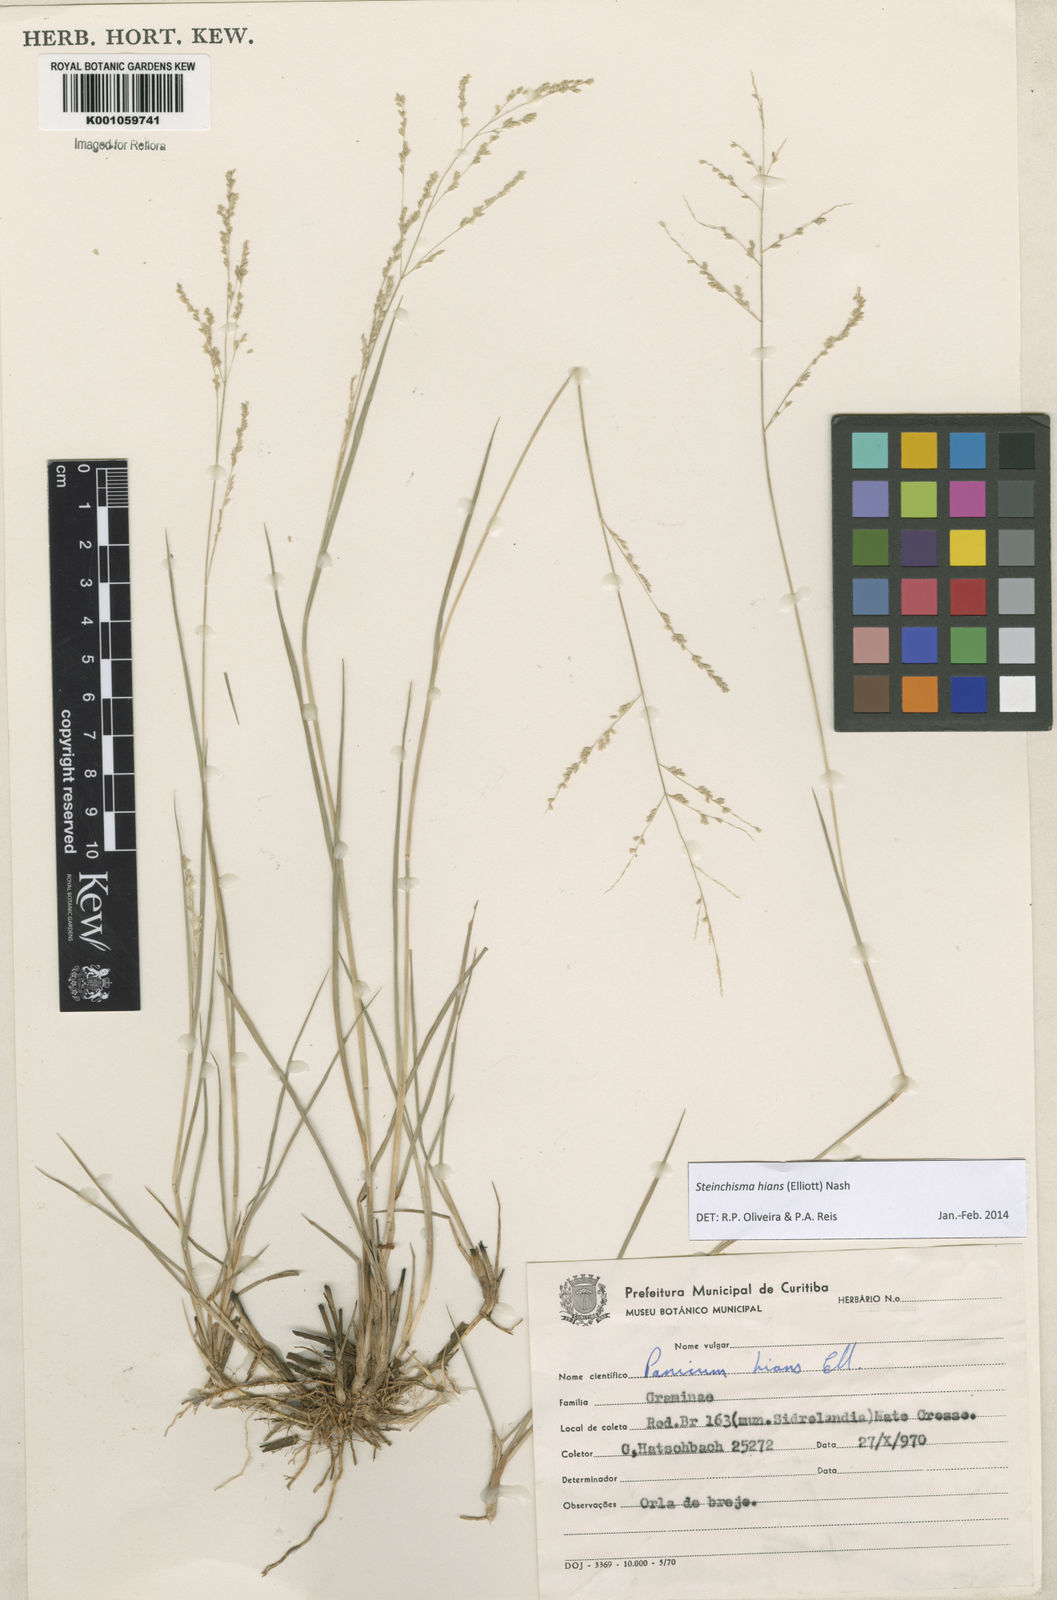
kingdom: Plantae
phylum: Tracheophyta
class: Liliopsida
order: Poales
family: Poaceae
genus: Steinchisma
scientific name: Steinchisma hians
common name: Gaping panic grass
